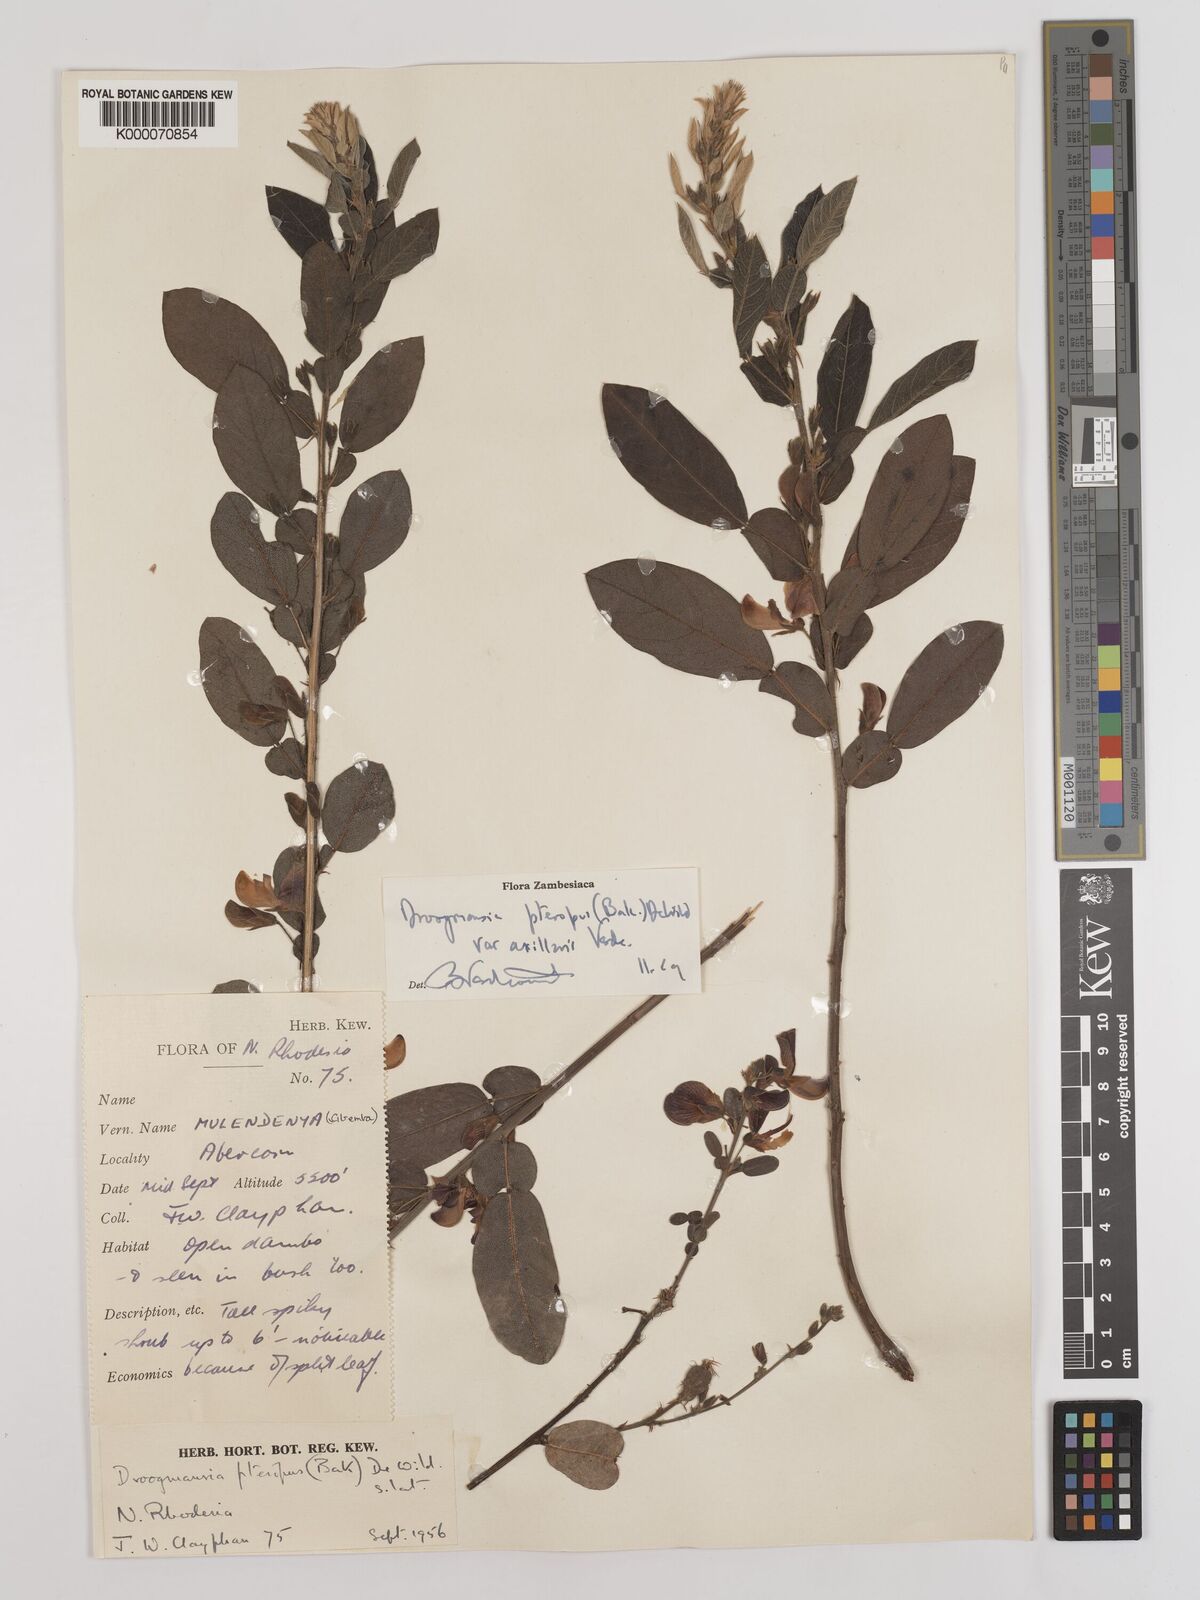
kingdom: Plantae
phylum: Tracheophyta
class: Magnoliopsida
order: Fabales
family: Fabaceae
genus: Droogmansia
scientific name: Droogmansia pteropus
